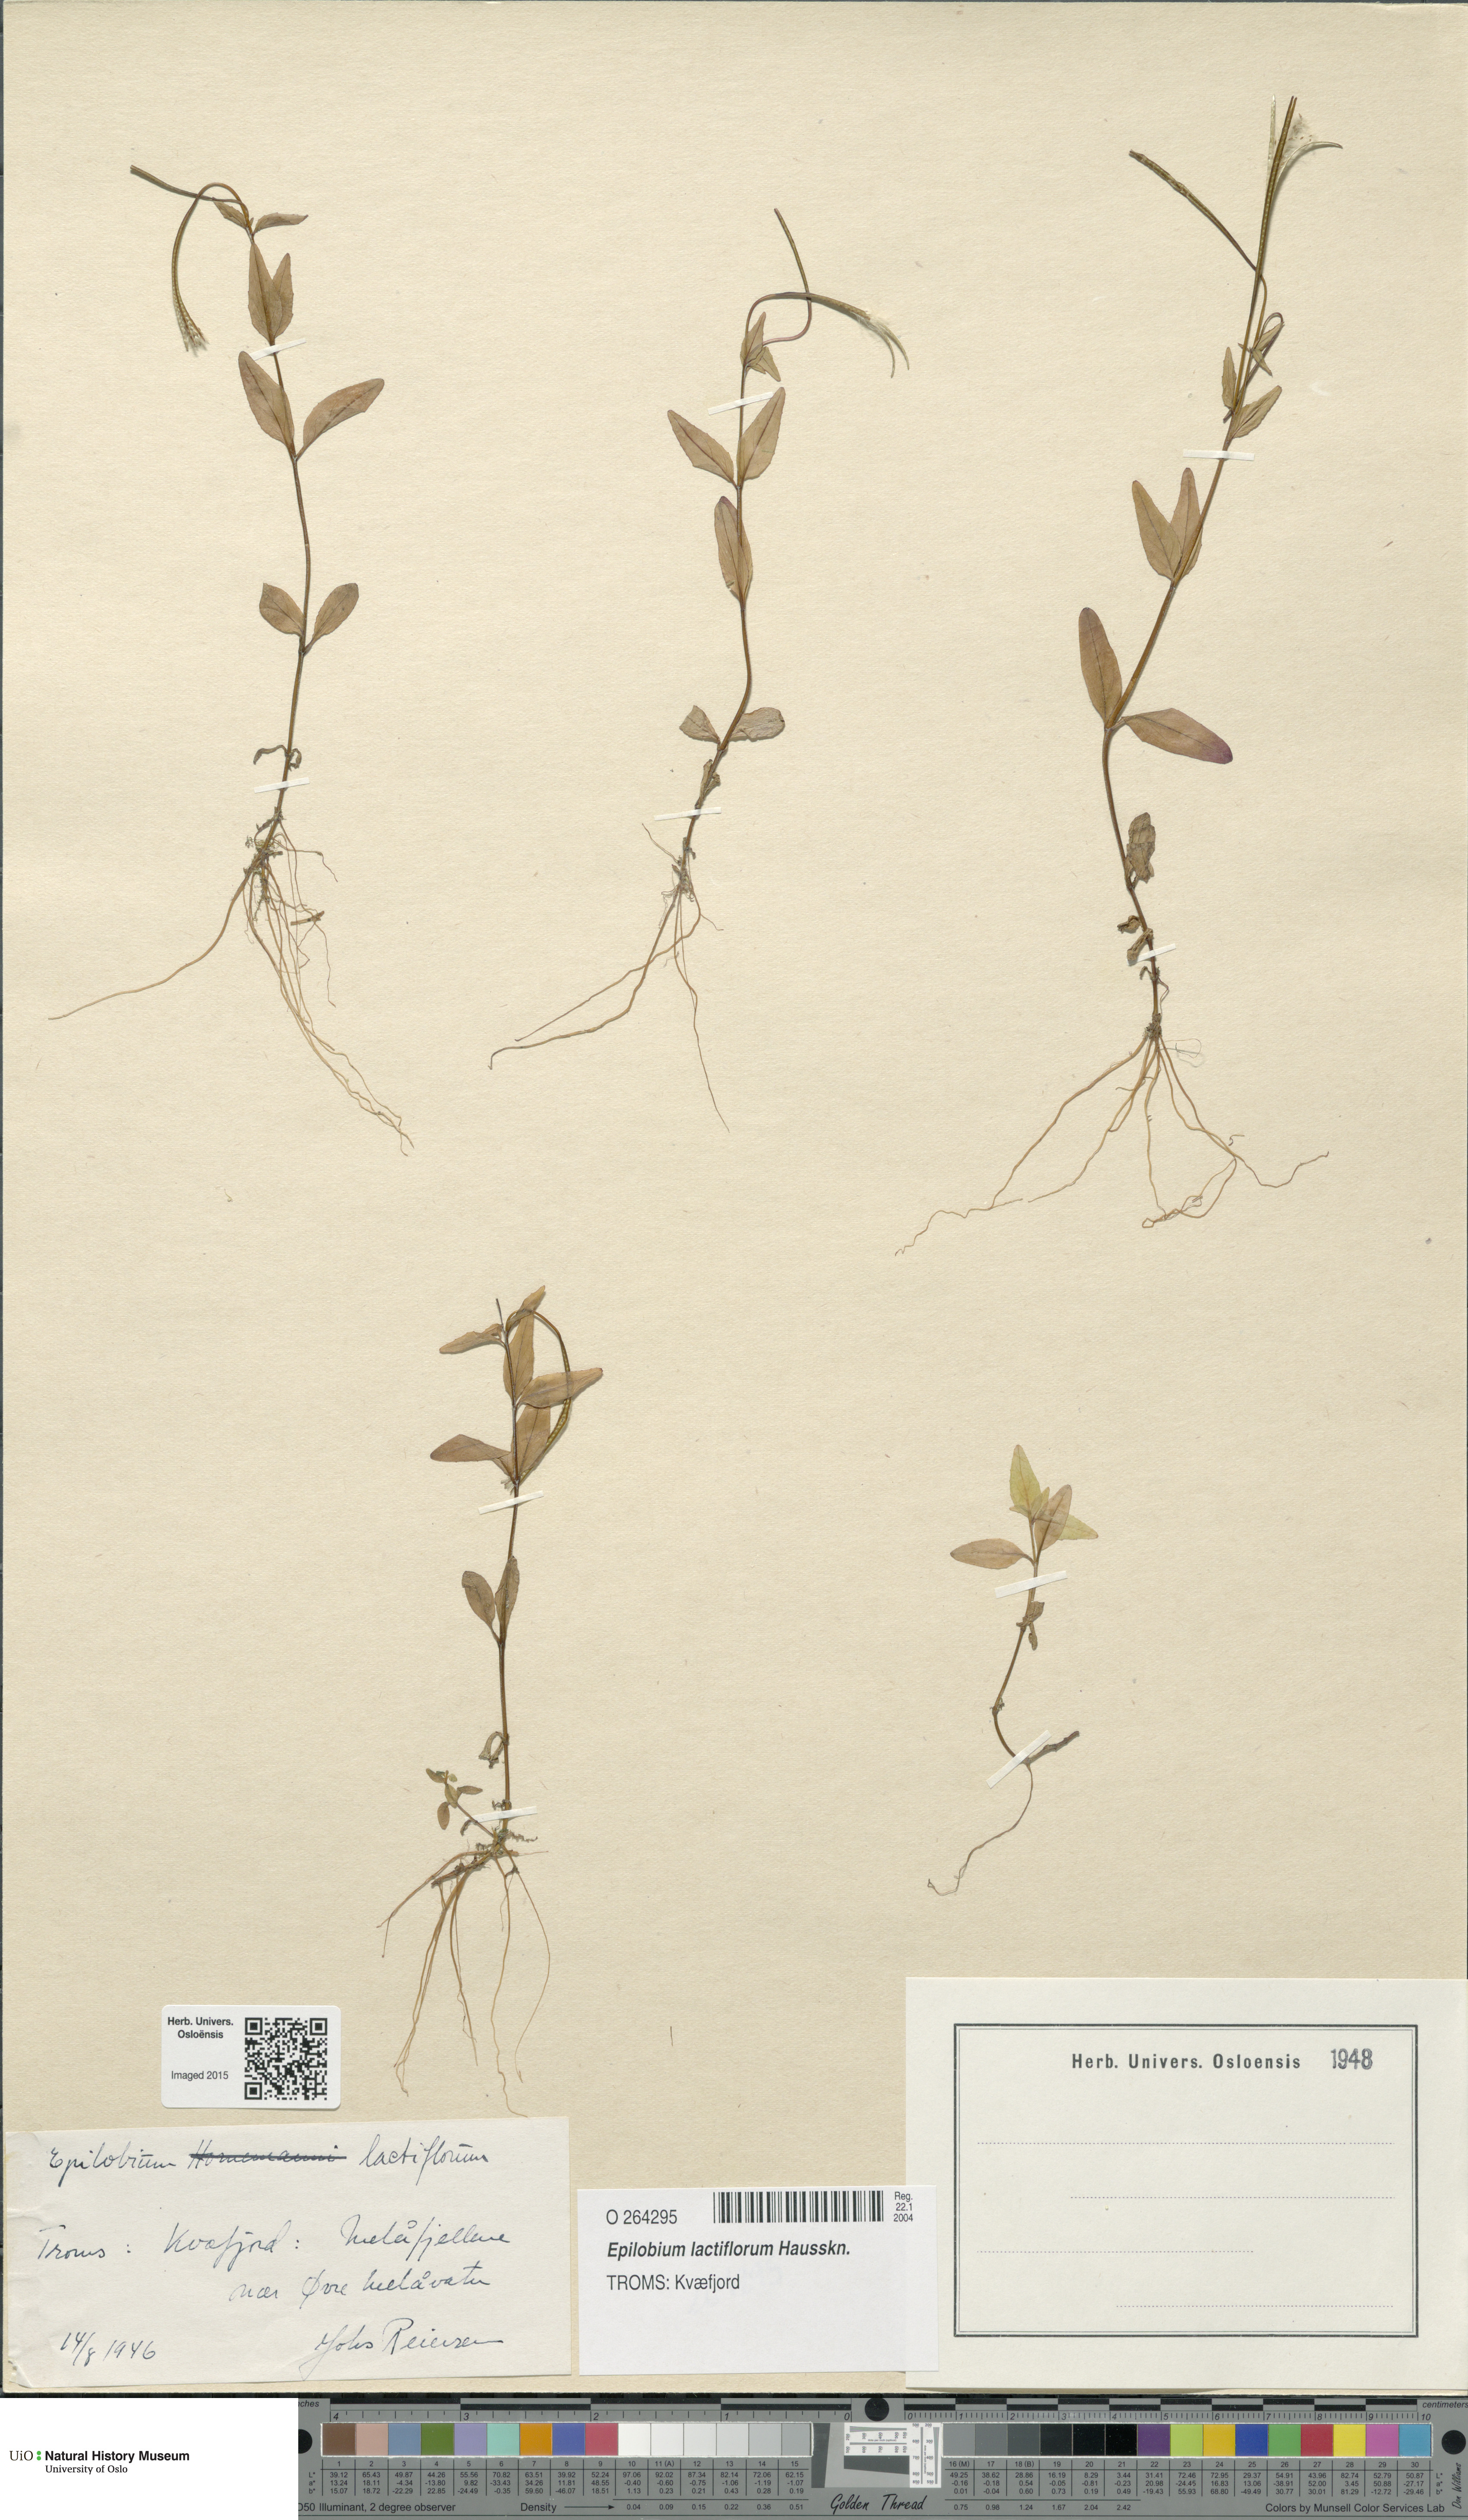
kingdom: Plantae
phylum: Tracheophyta
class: Magnoliopsida
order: Myrtales
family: Onagraceae
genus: Epilobium
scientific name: Epilobium lactiflorum
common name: Milkflower willowherb
